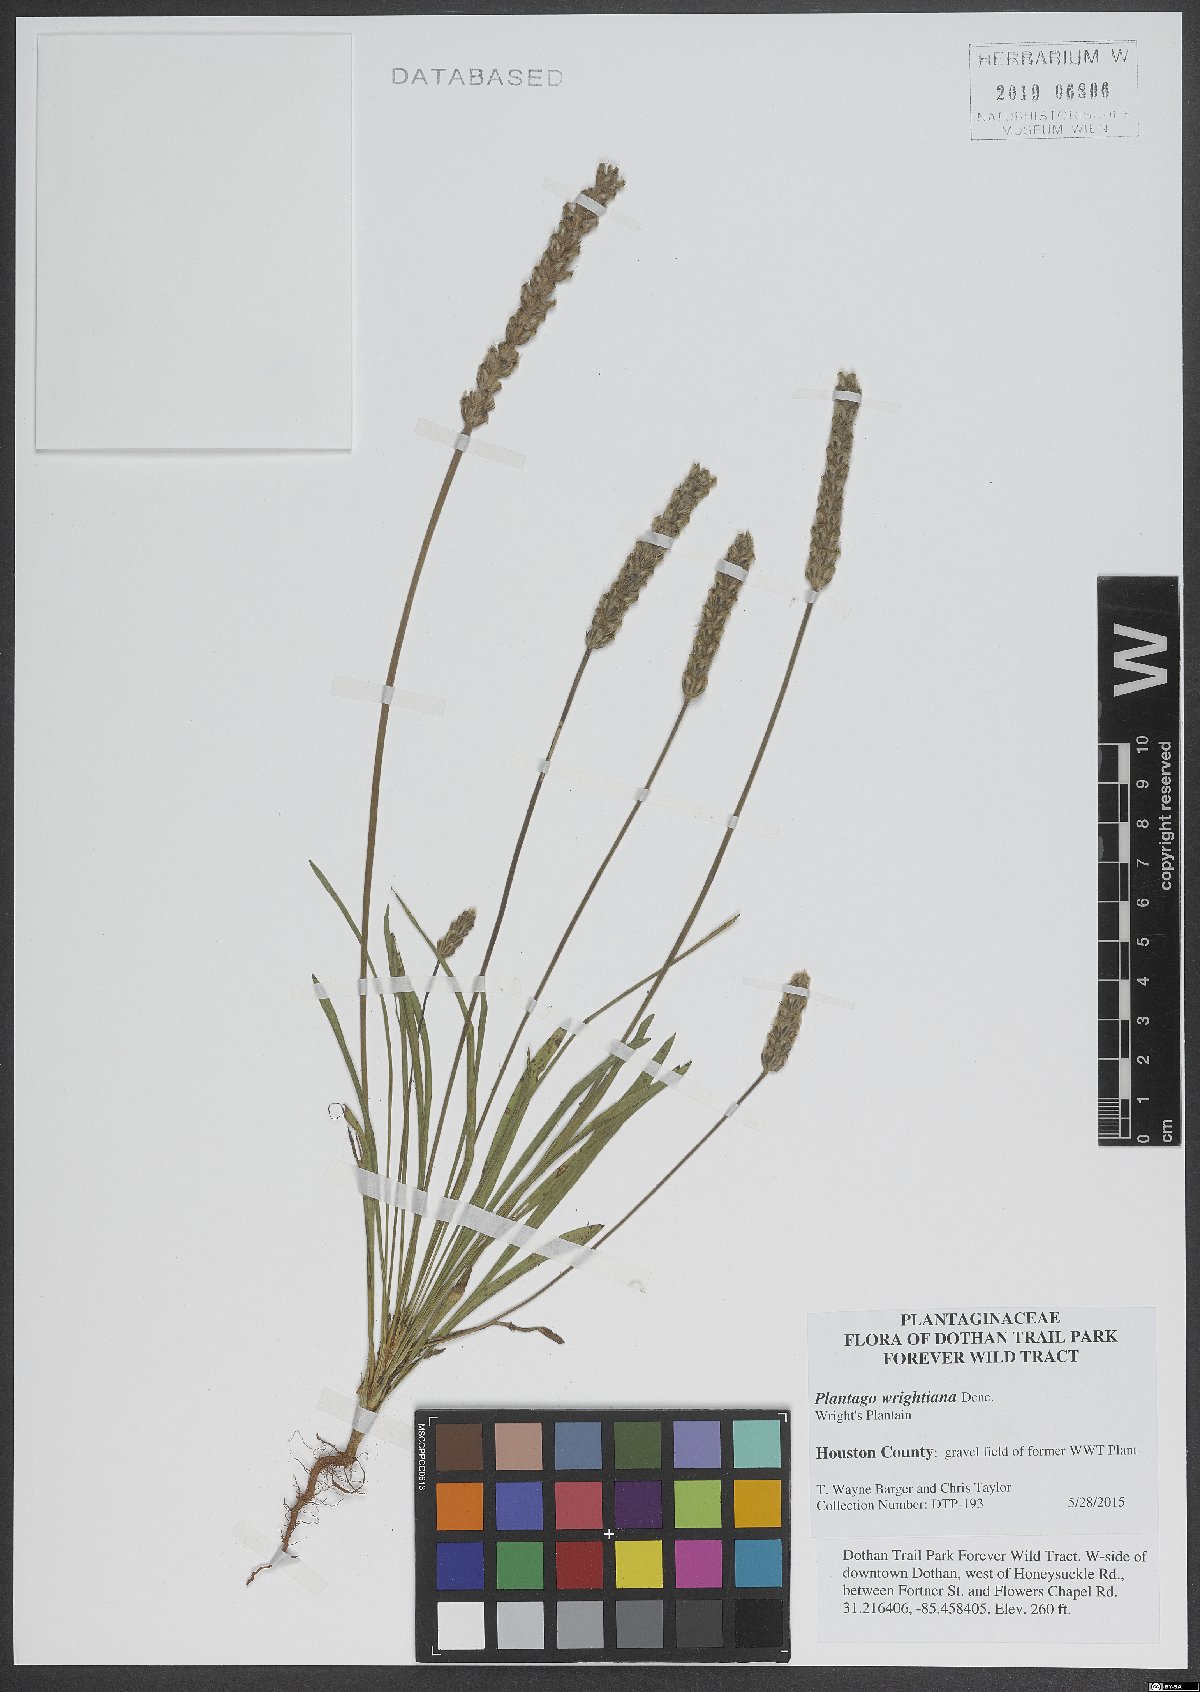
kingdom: Plantae
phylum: Tracheophyta
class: Magnoliopsida
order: Lamiales
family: Plantaginaceae
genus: Plantago
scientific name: Plantago wrightiana
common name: Wright's plantain
